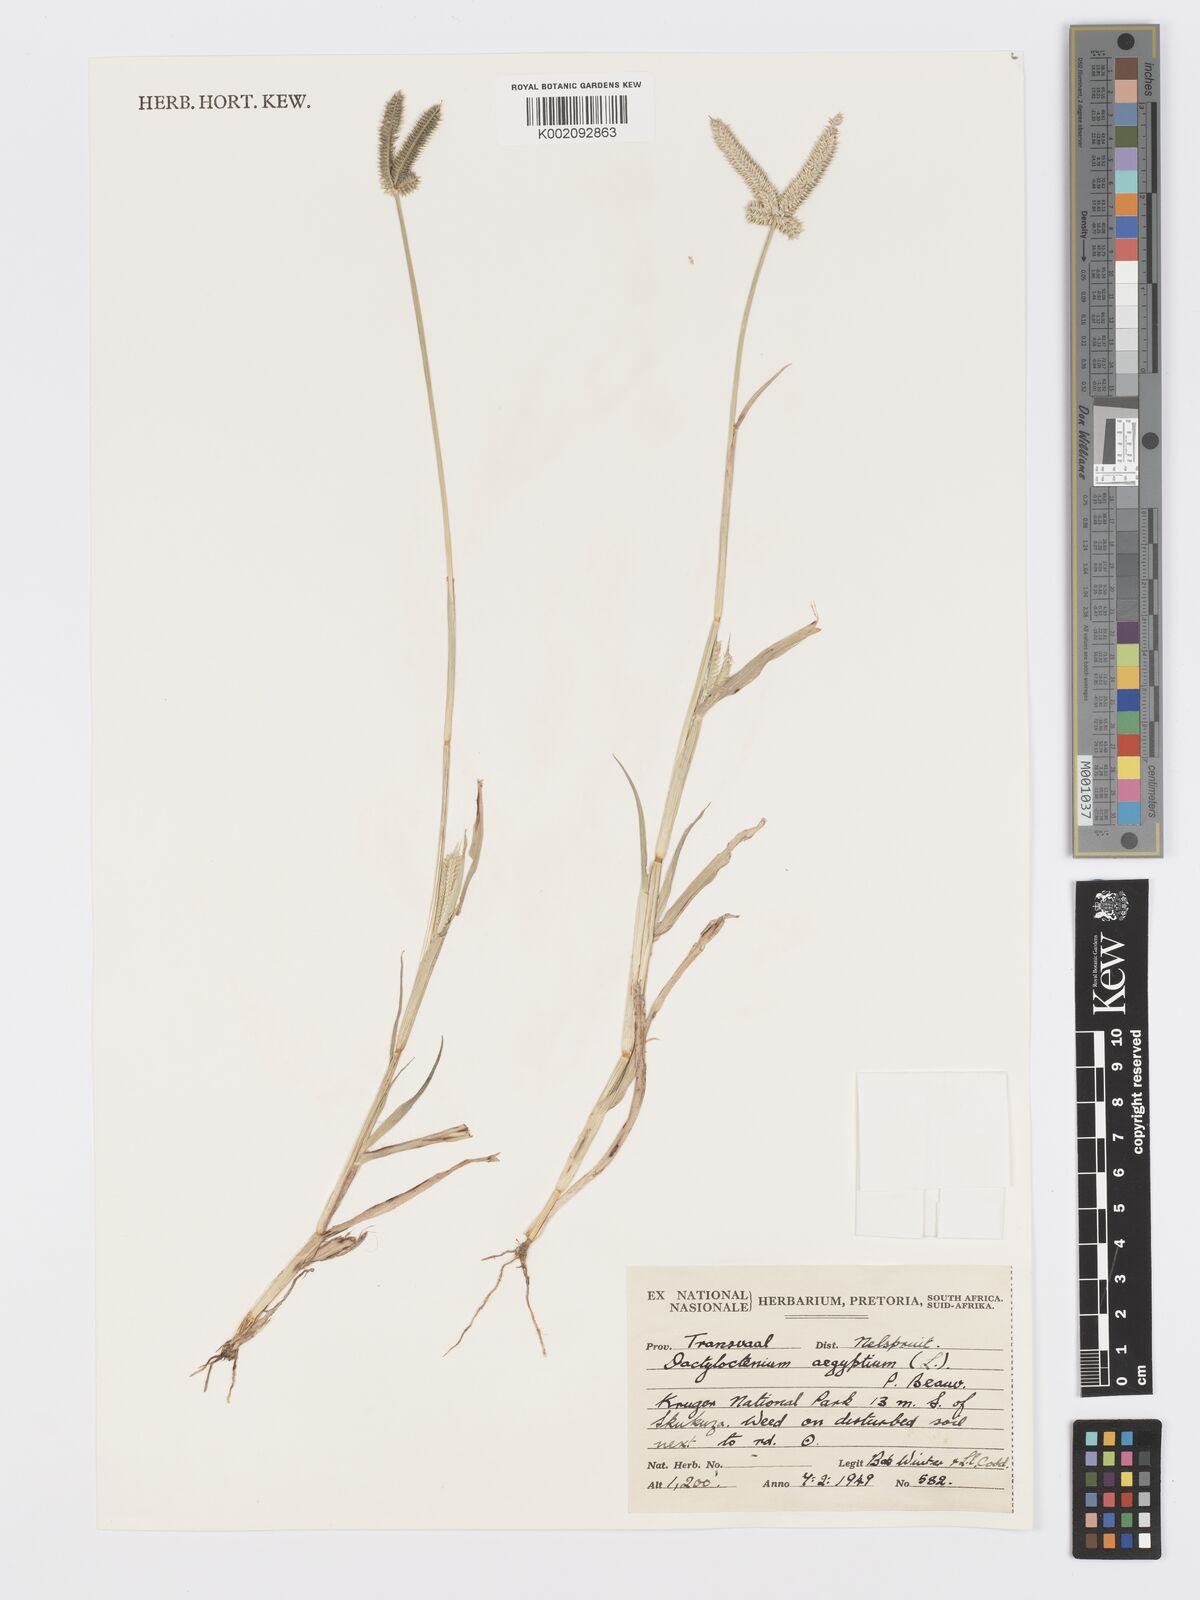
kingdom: Plantae
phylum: Tracheophyta
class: Liliopsida
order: Poales
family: Poaceae
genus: Dactyloctenium
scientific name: Dactyloctenium aegyptium
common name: Egyptian grass
